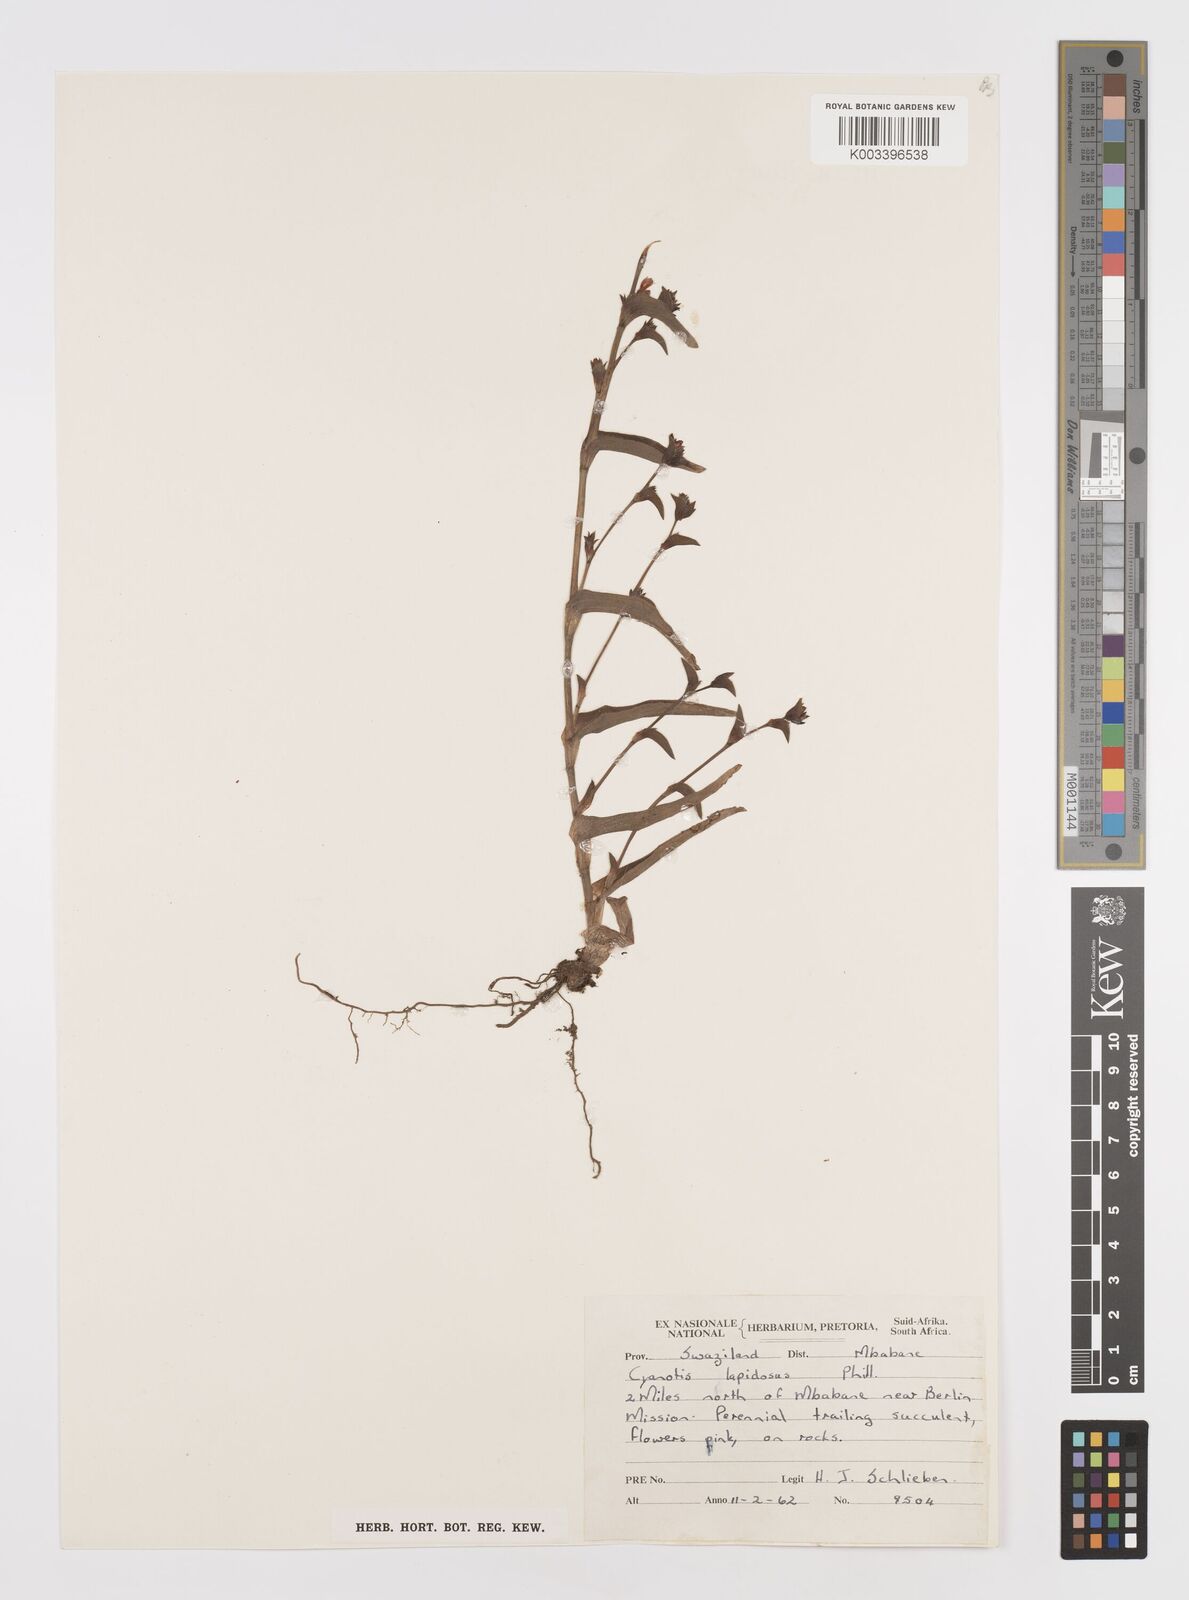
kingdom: Plantae
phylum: Tracheophyta
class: Liliopsida
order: Commelinales
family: Commelinaceae
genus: Cyanotis
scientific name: Cyanotis lapidosa
